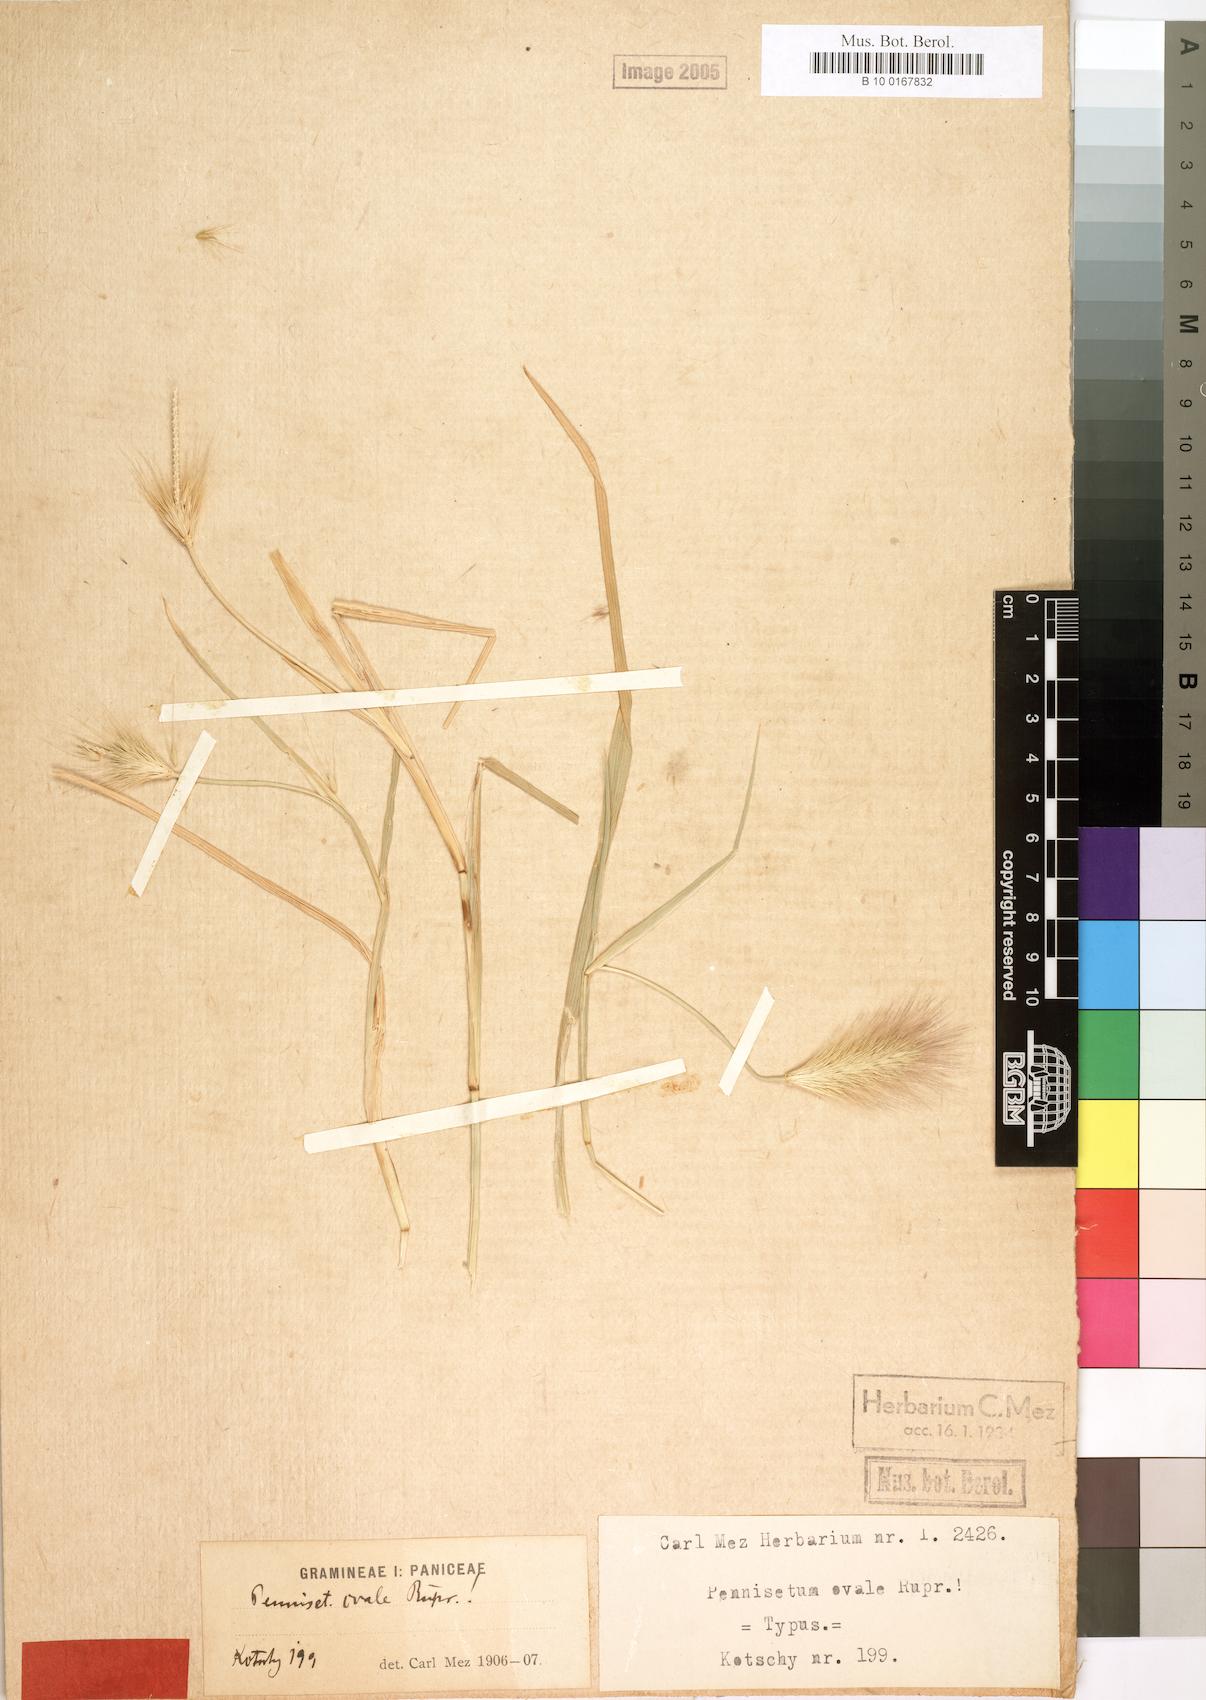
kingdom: Plantae
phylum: Tracheophyta
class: Liliopsida
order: Poales
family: Poaceae
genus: Cenchrus
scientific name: Cenchrus ramosus
